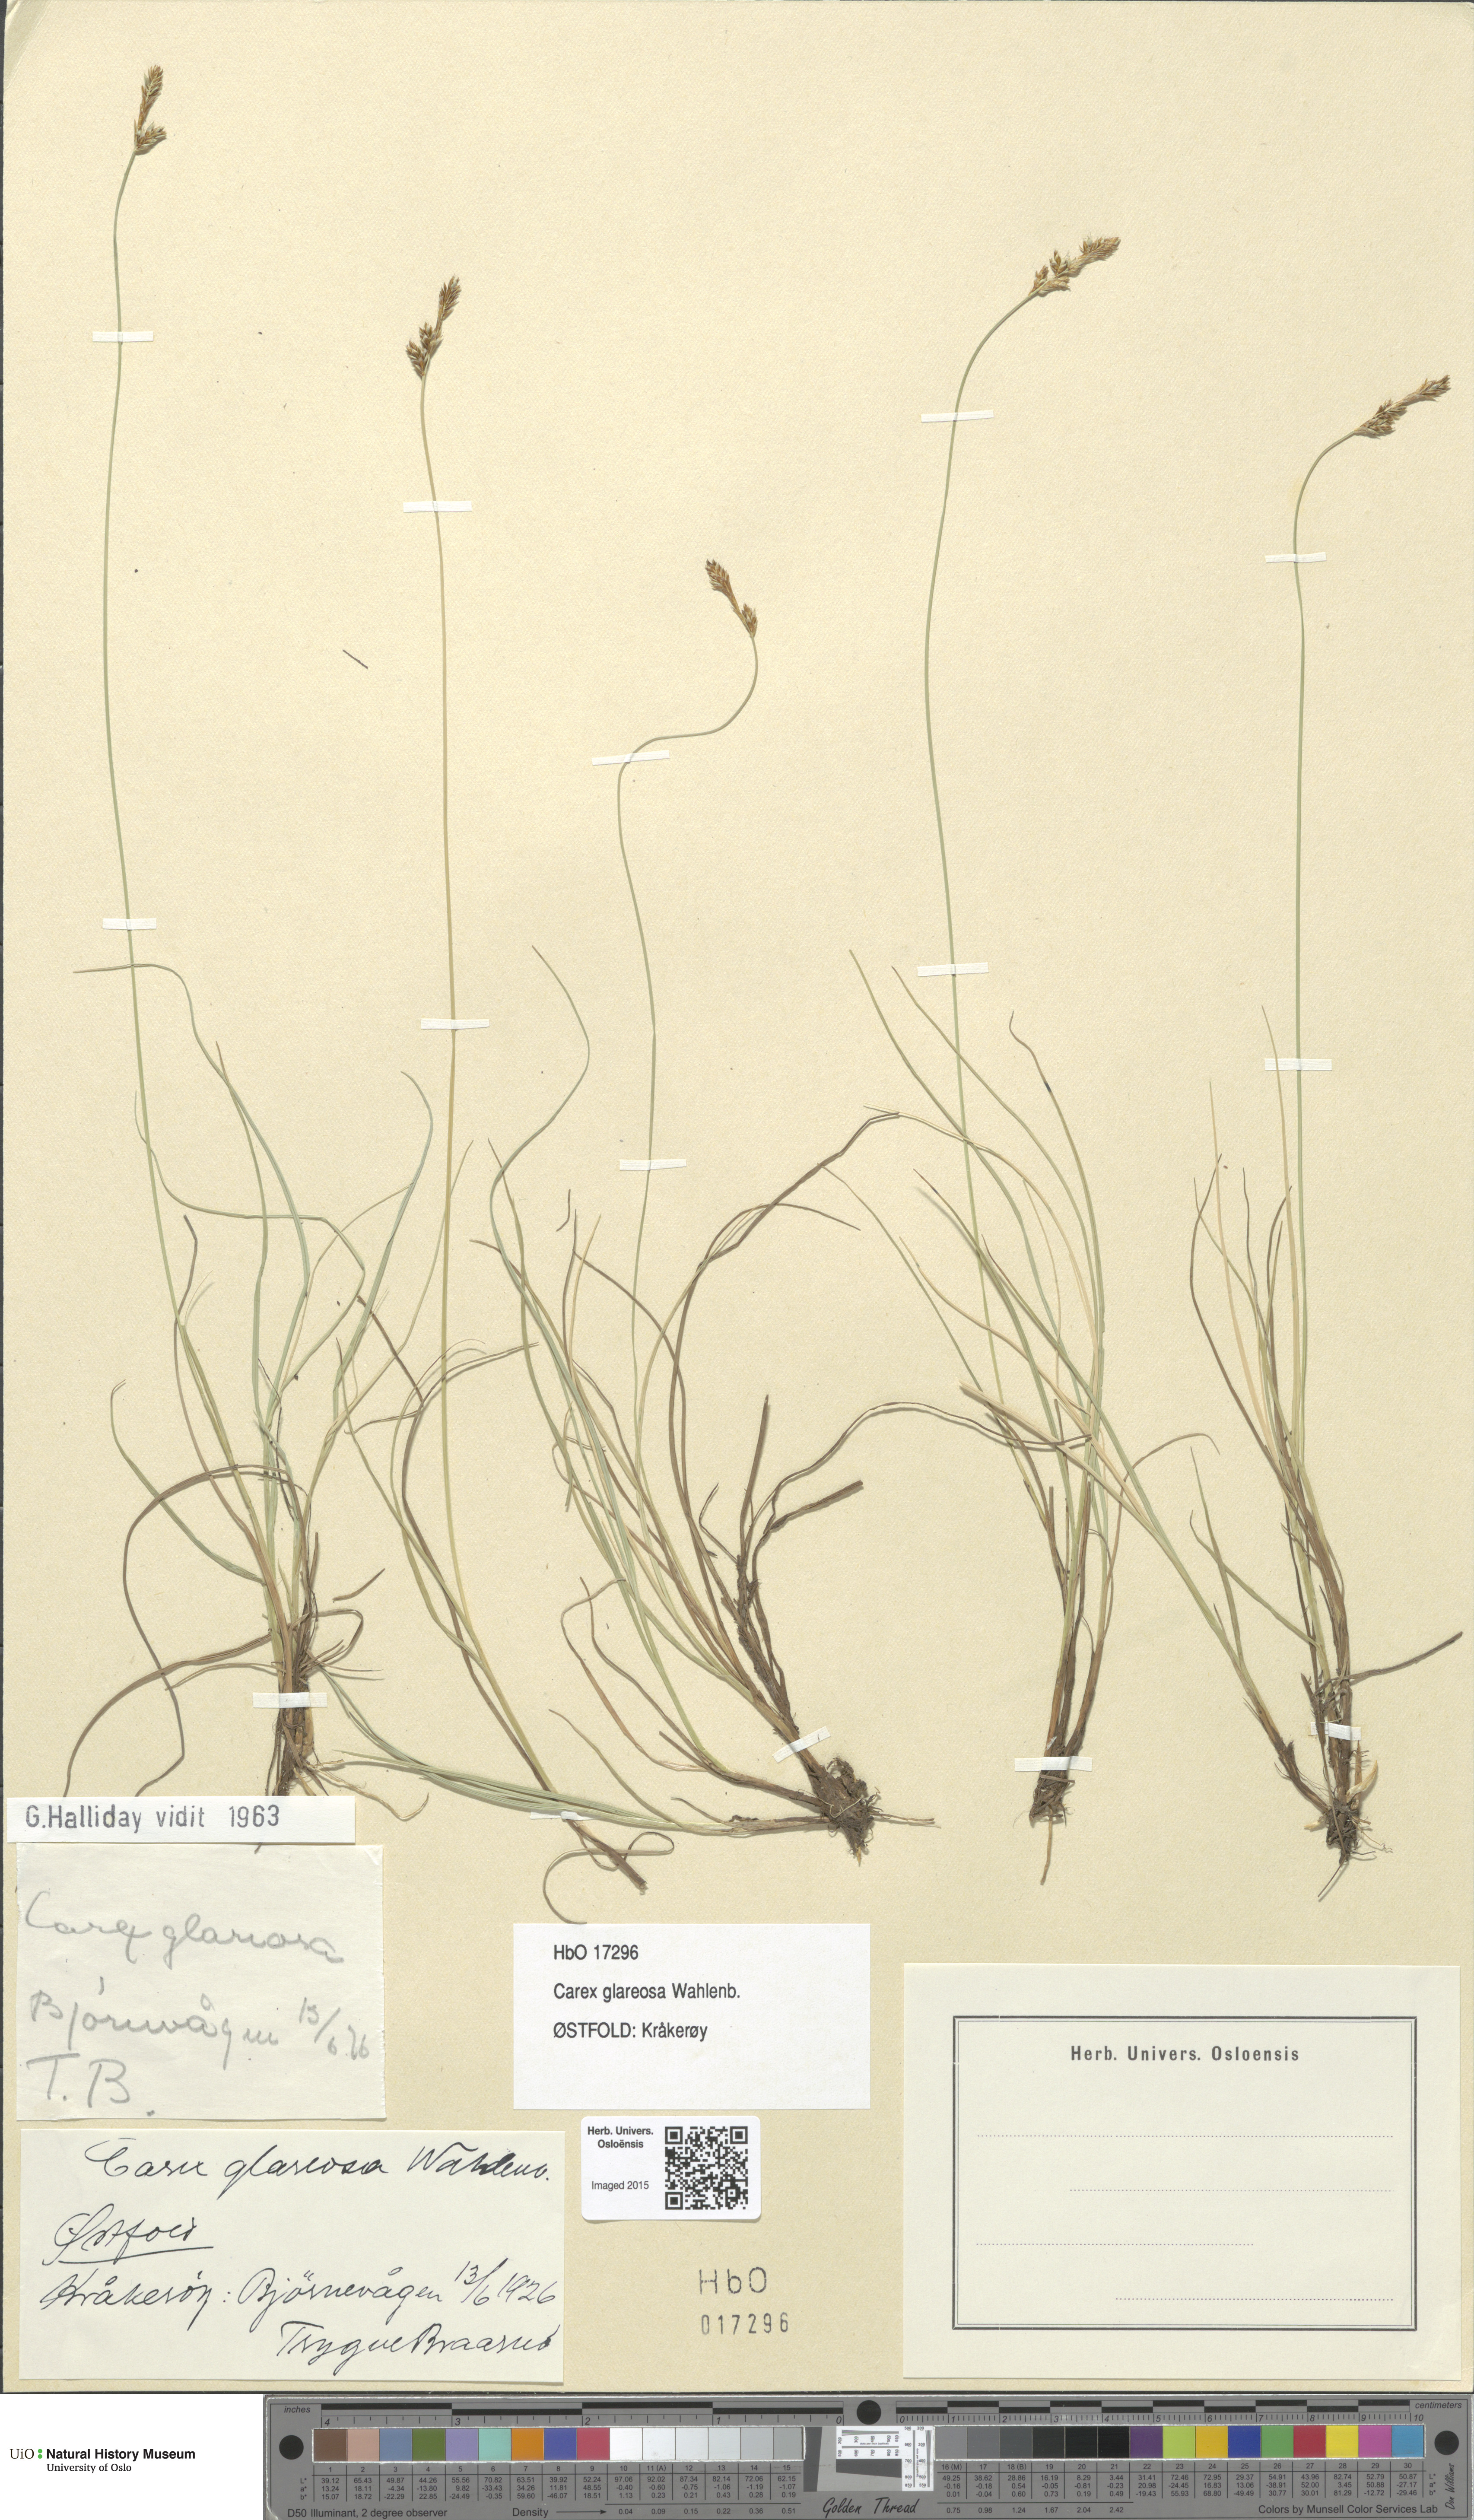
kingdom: Plantae
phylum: Tracheophyta
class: Liliopsida
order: Poales
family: Cyperaceae
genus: Carex
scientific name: Carex glareosa
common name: Clustered sedge
